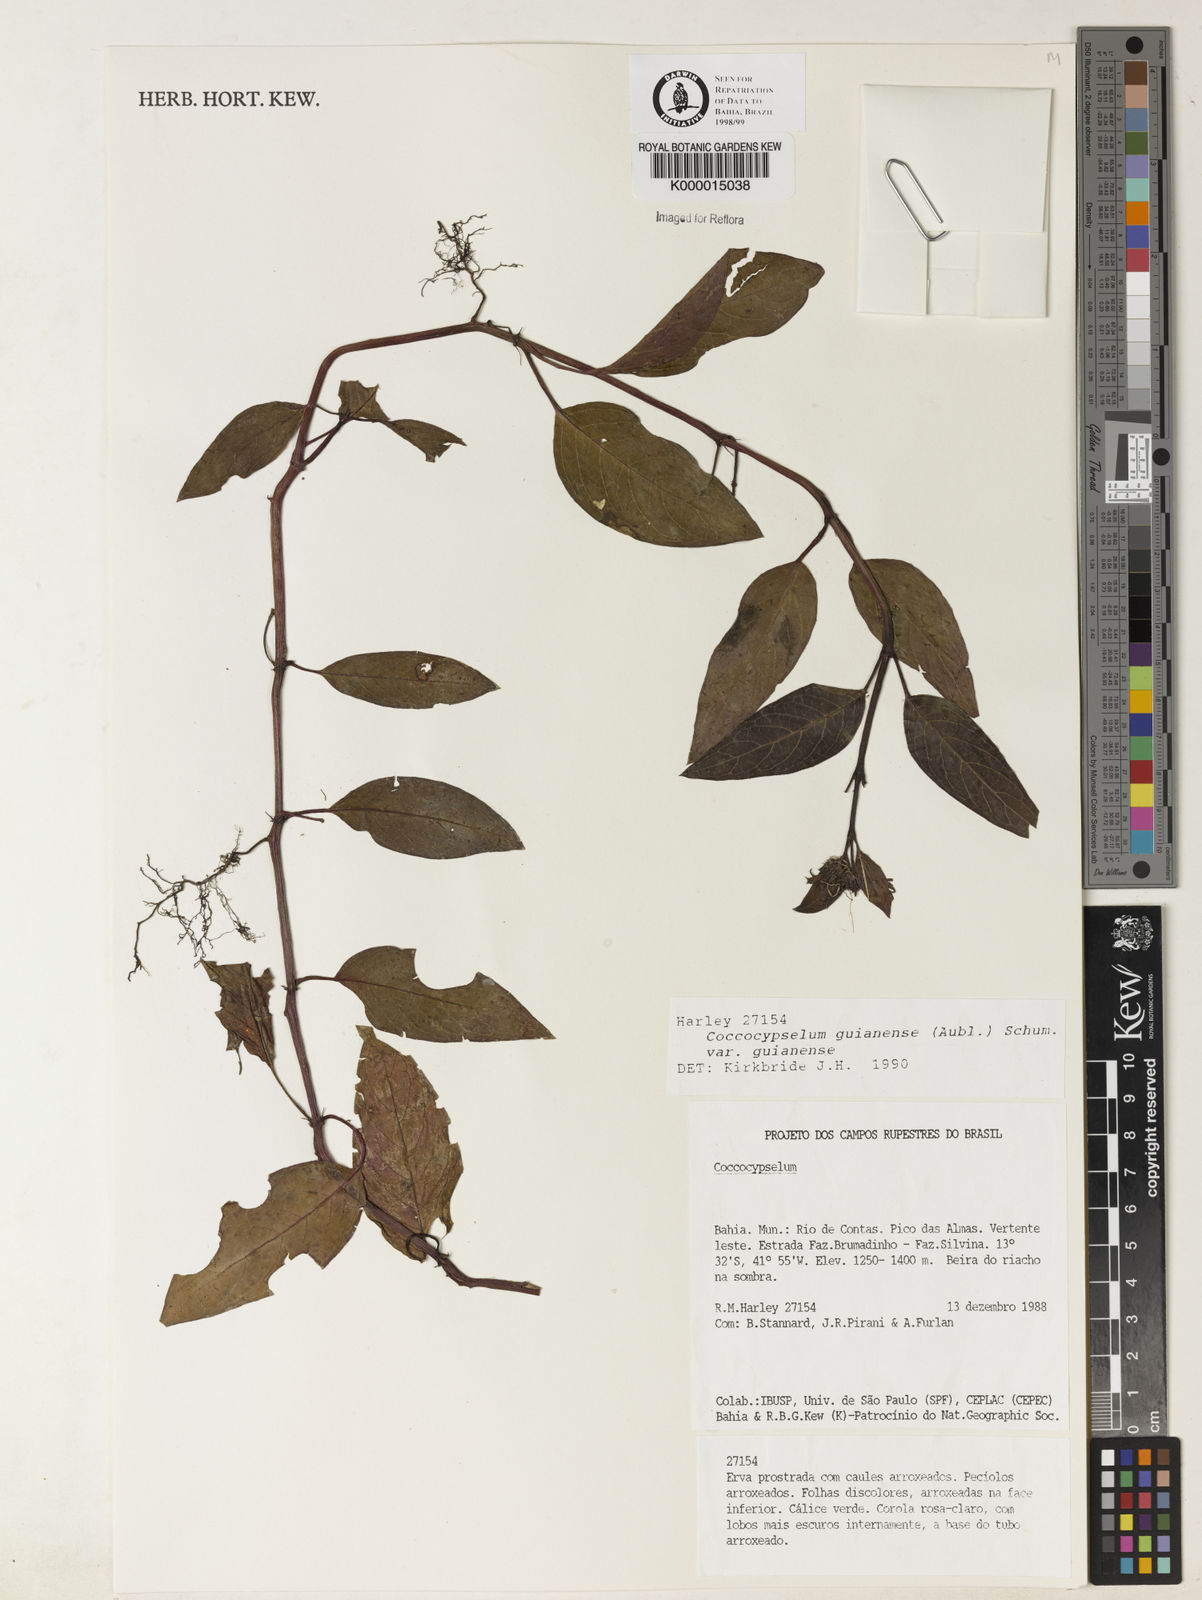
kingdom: Plantae
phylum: Tracheophyta
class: Magnoliopsida
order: Gentianales
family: Rubiaceae
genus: Coccocypselum
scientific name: Coccocypselum guianense
